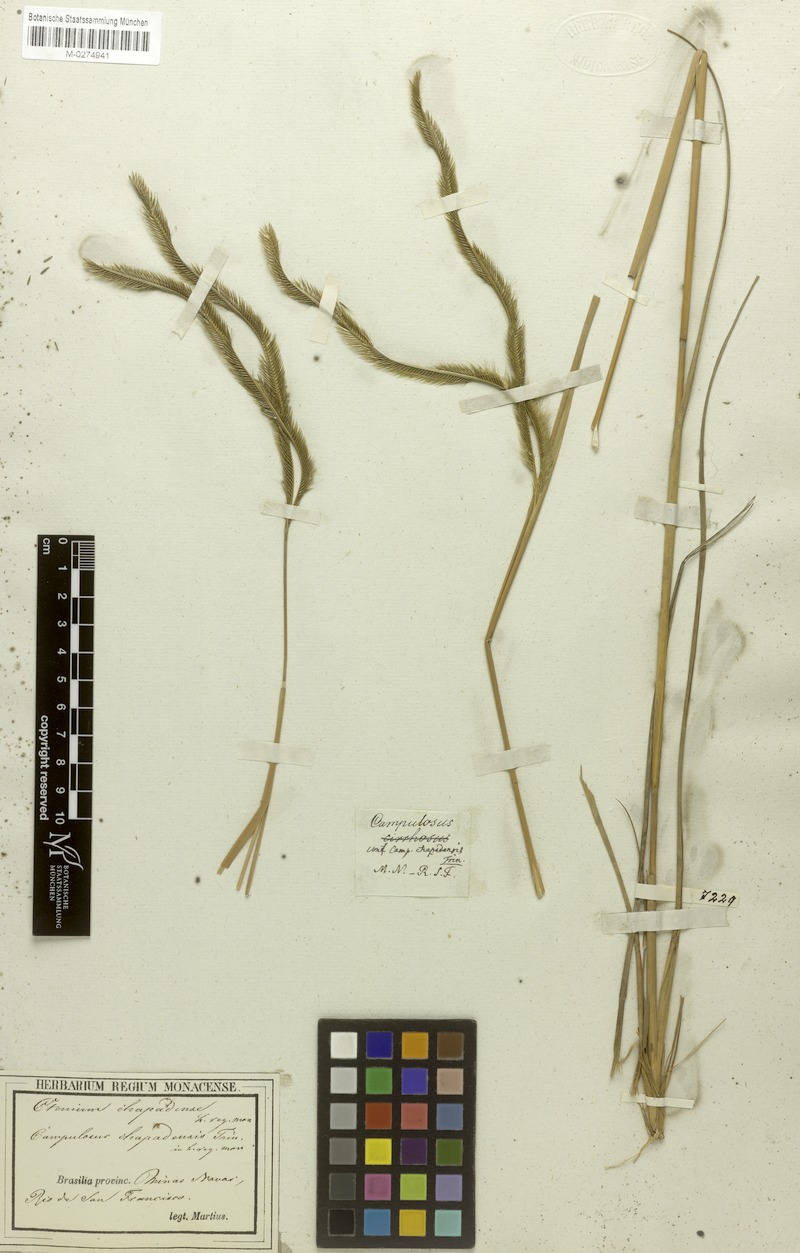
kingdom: Plantae
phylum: Tracheophyta
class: Liliopsida
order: Poales
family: Poaceae
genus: Ctenium
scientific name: Ctenium chapadense
